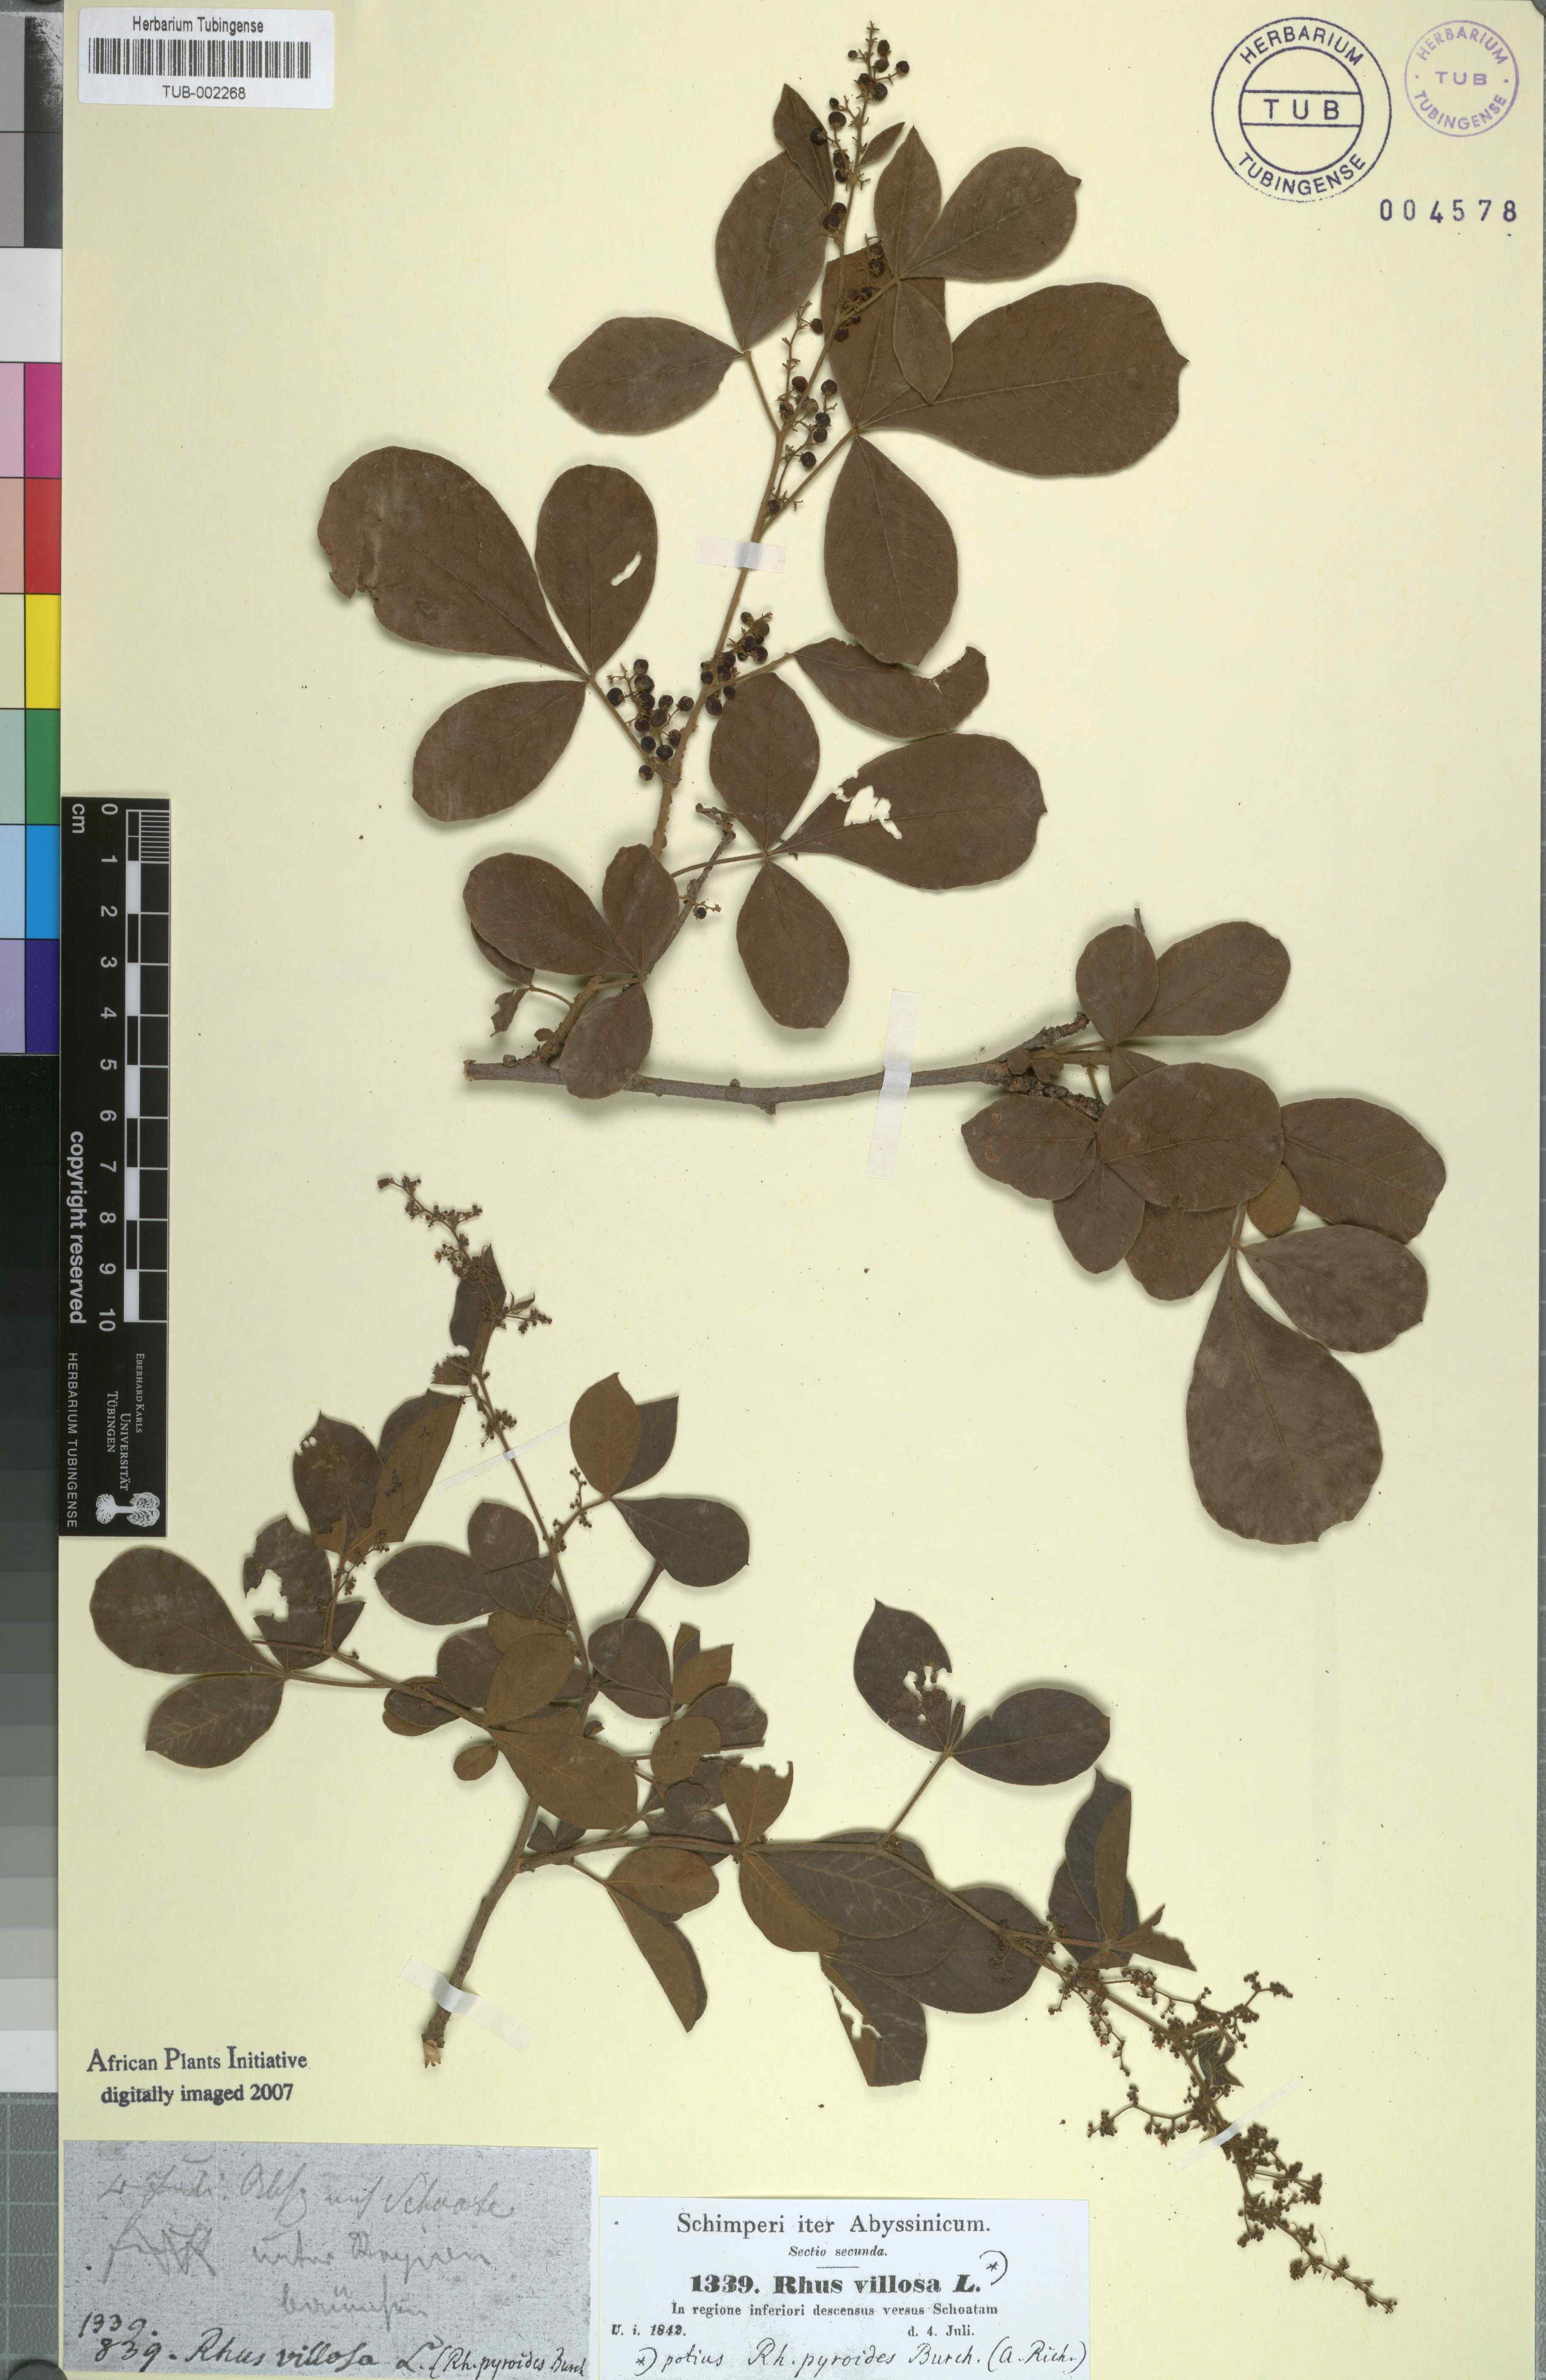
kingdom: Plantae
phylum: Tracheophyta
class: Magnoliopsida
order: Sapindales
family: Anacardiaceae
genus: Searsia
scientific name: Searsia laevigata
